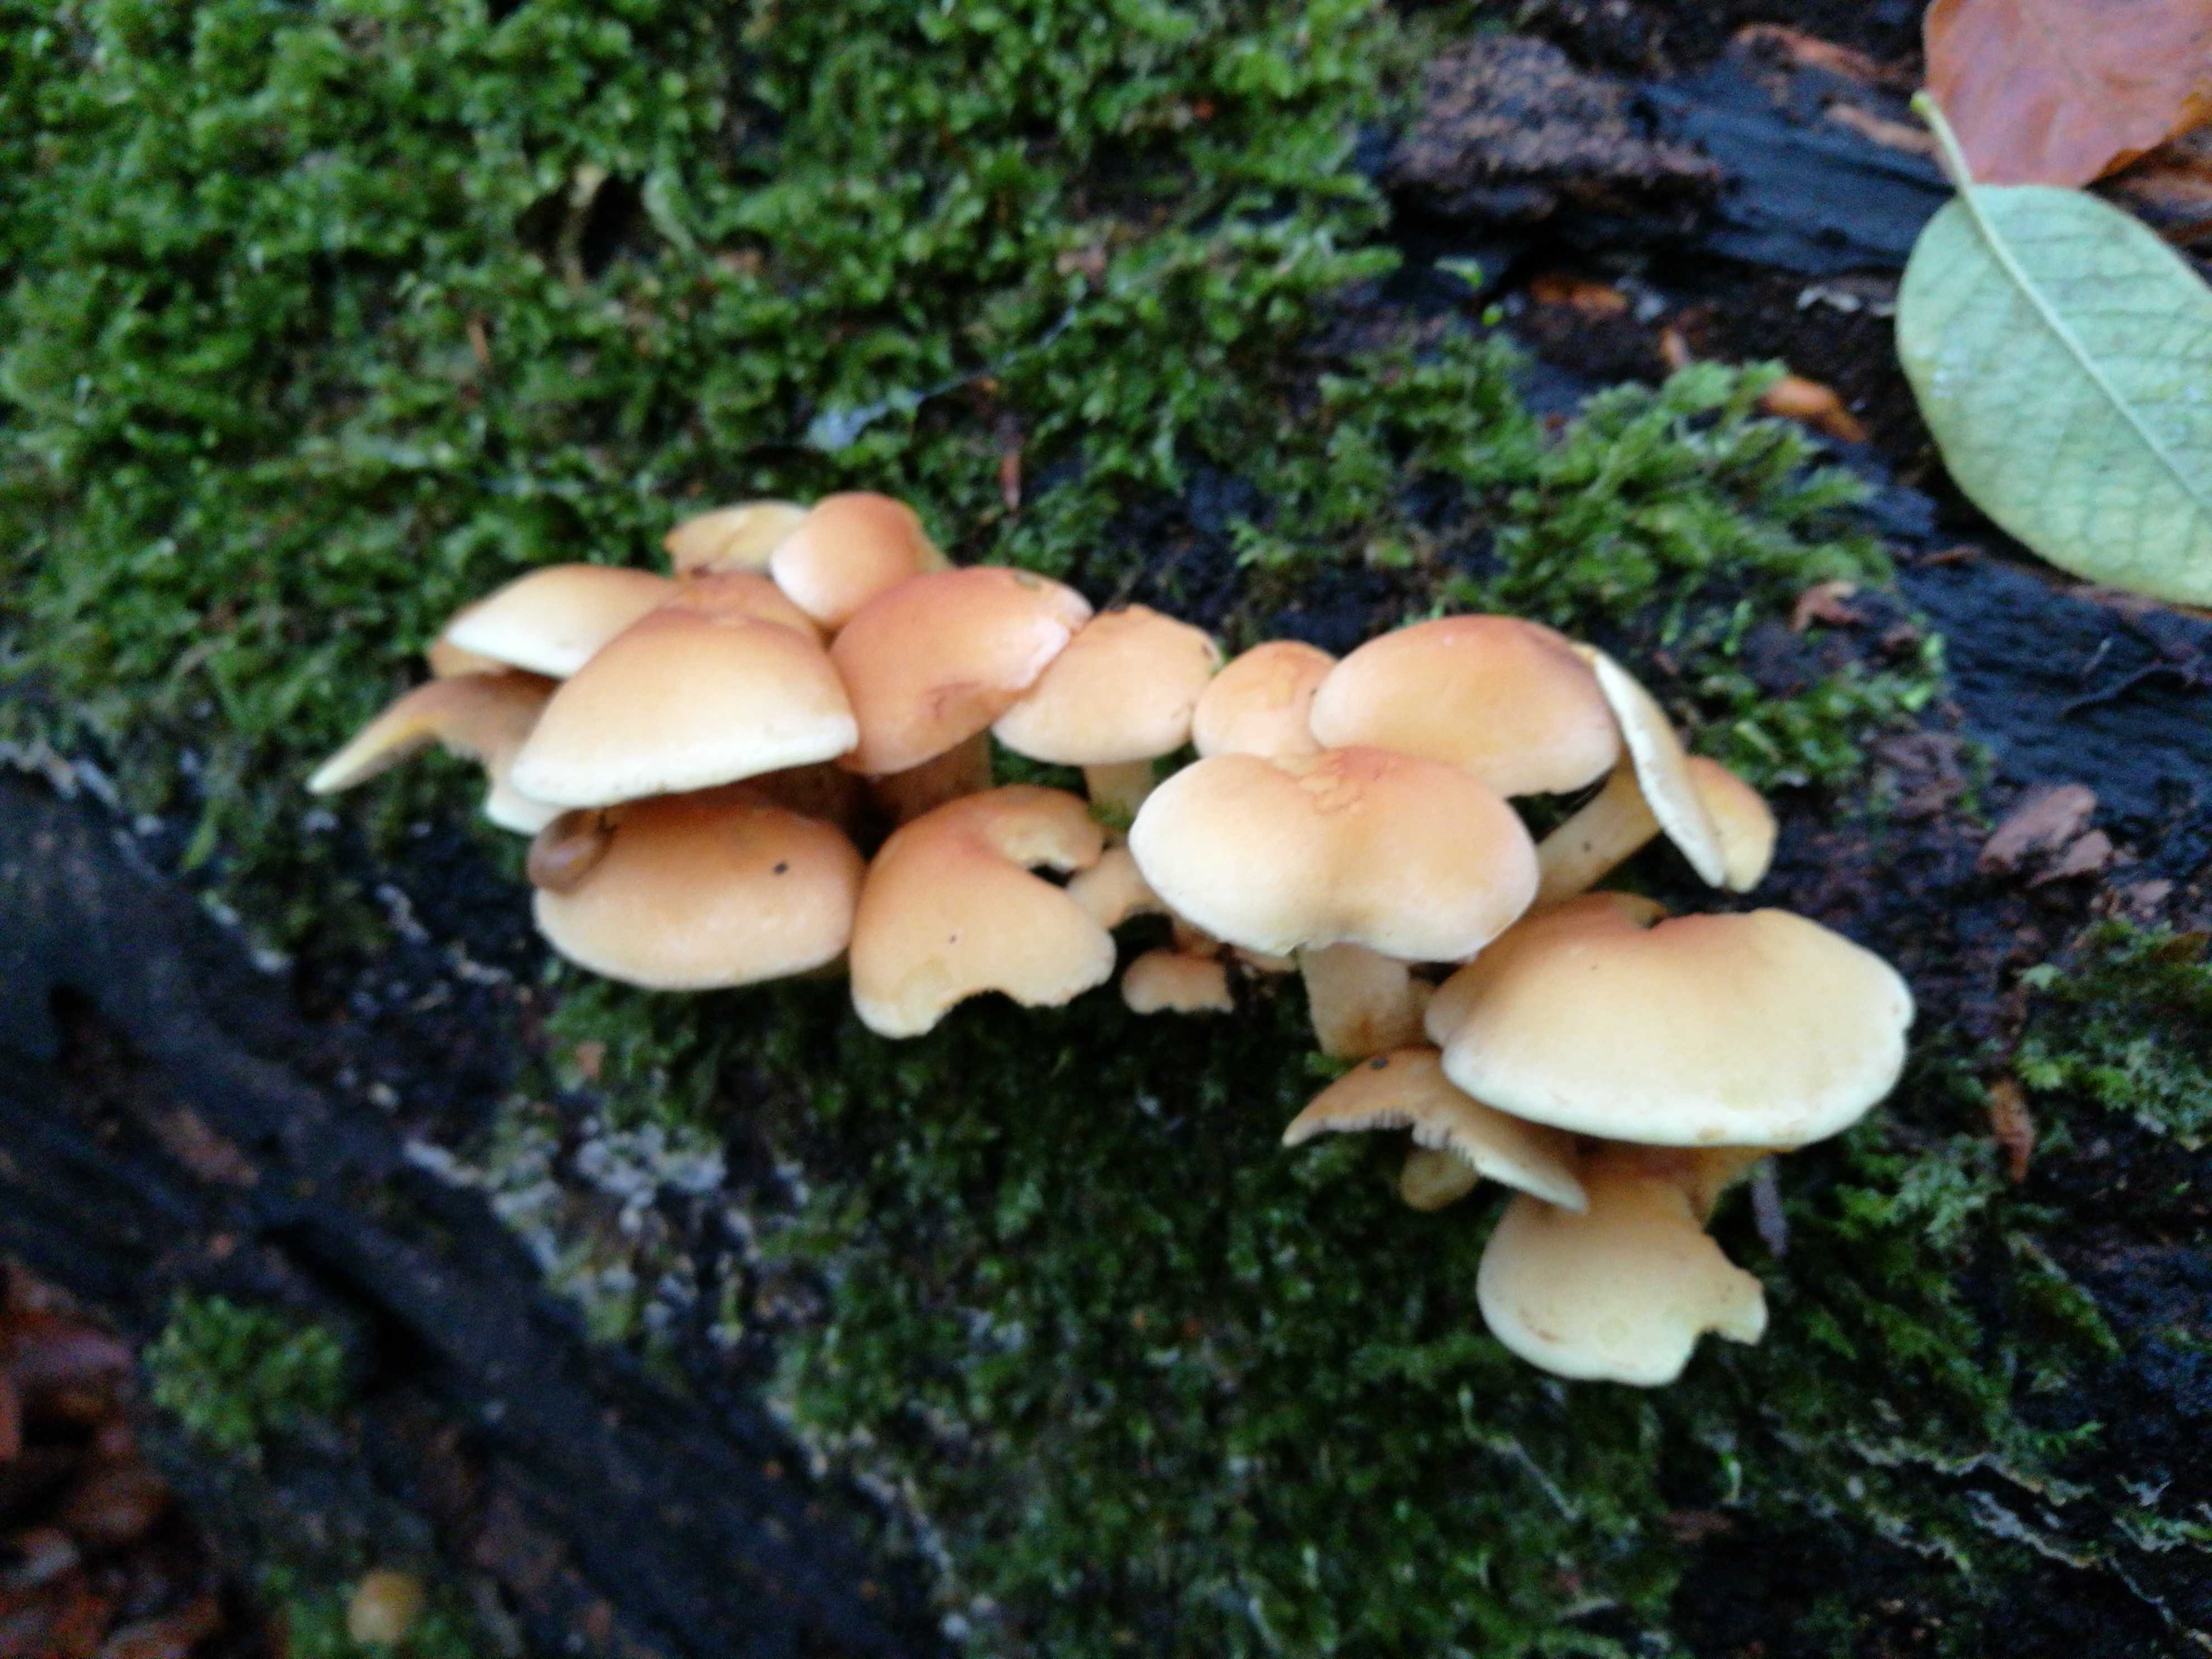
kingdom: Fungi
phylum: Basidiomycota
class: Agaricomycetes
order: Agaricales
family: Strophariaceae
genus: Hypholoma
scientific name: Hypholoma fasciculare
